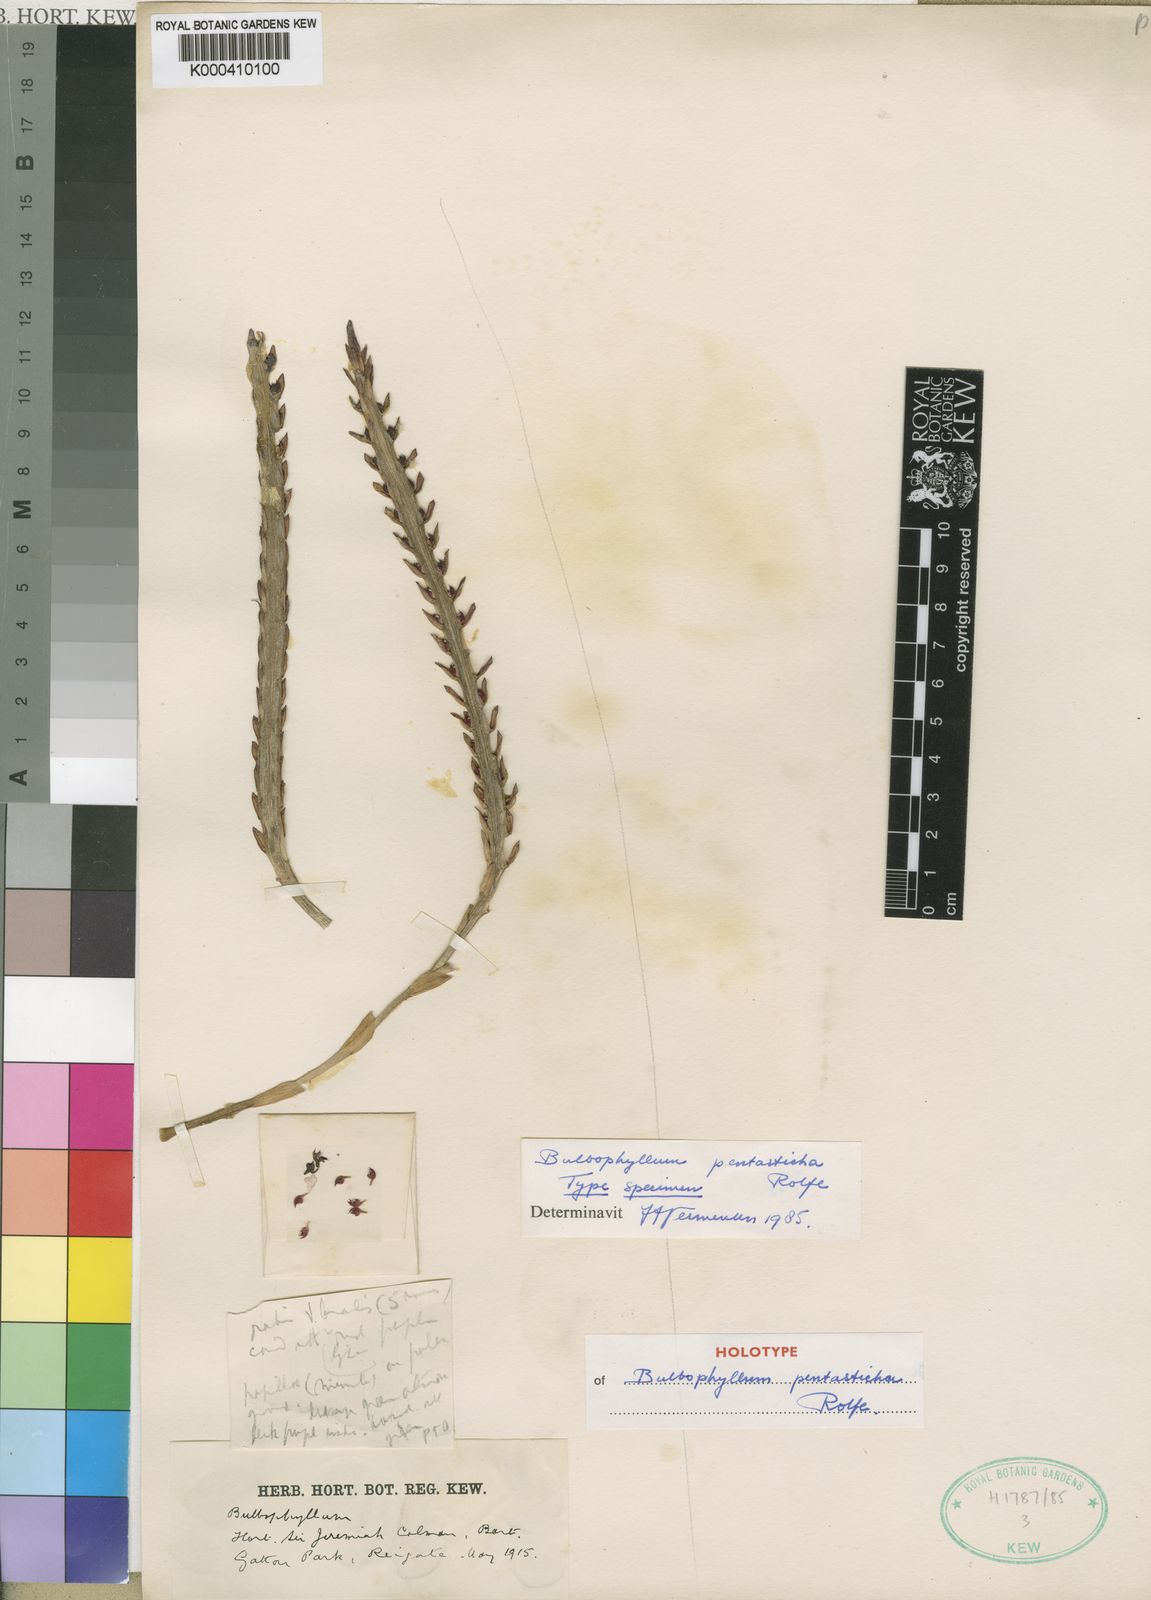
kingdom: Plantae
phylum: Tracheophyta
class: Liliopsida
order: Asparagales
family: Orchidaceae
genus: Bulbophyllum
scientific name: Bulbophyllum
